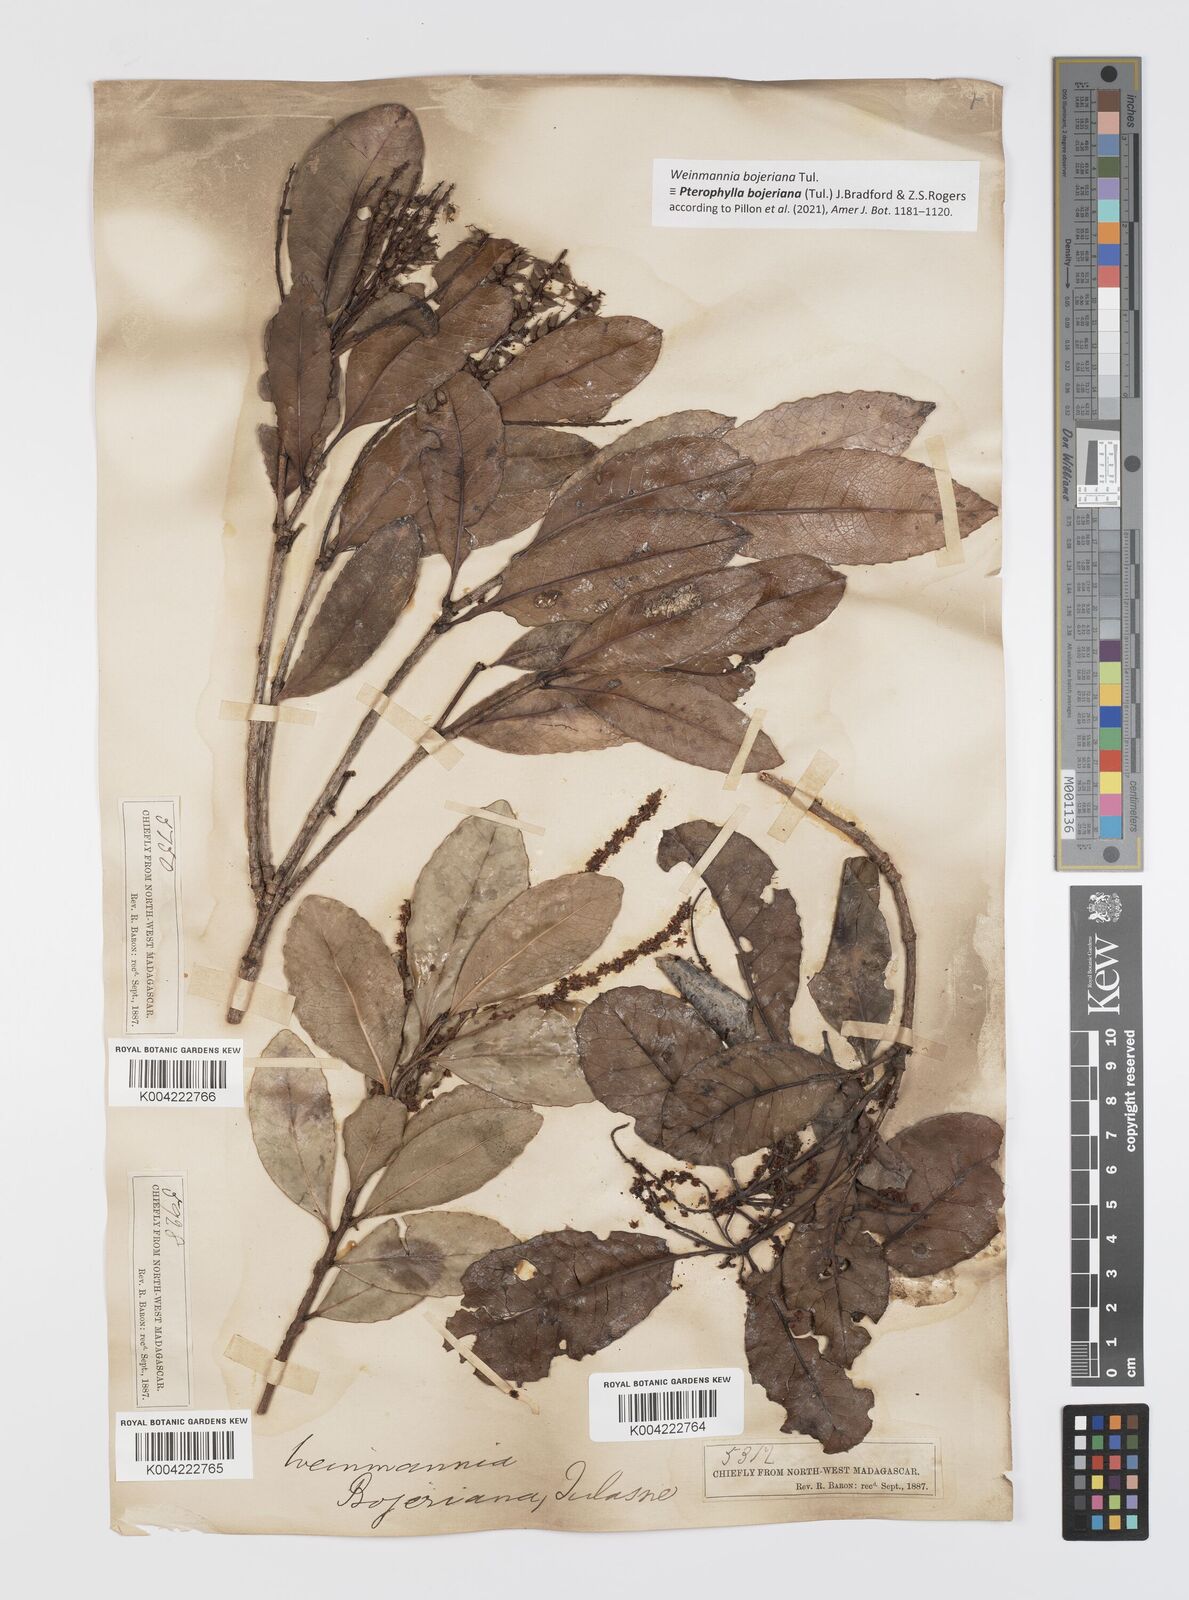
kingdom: Plantae
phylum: Tracheophyta
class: Magnoliopsida
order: Oxalidales
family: Cunoniaceae
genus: Pterophylla
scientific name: Pterophylla
